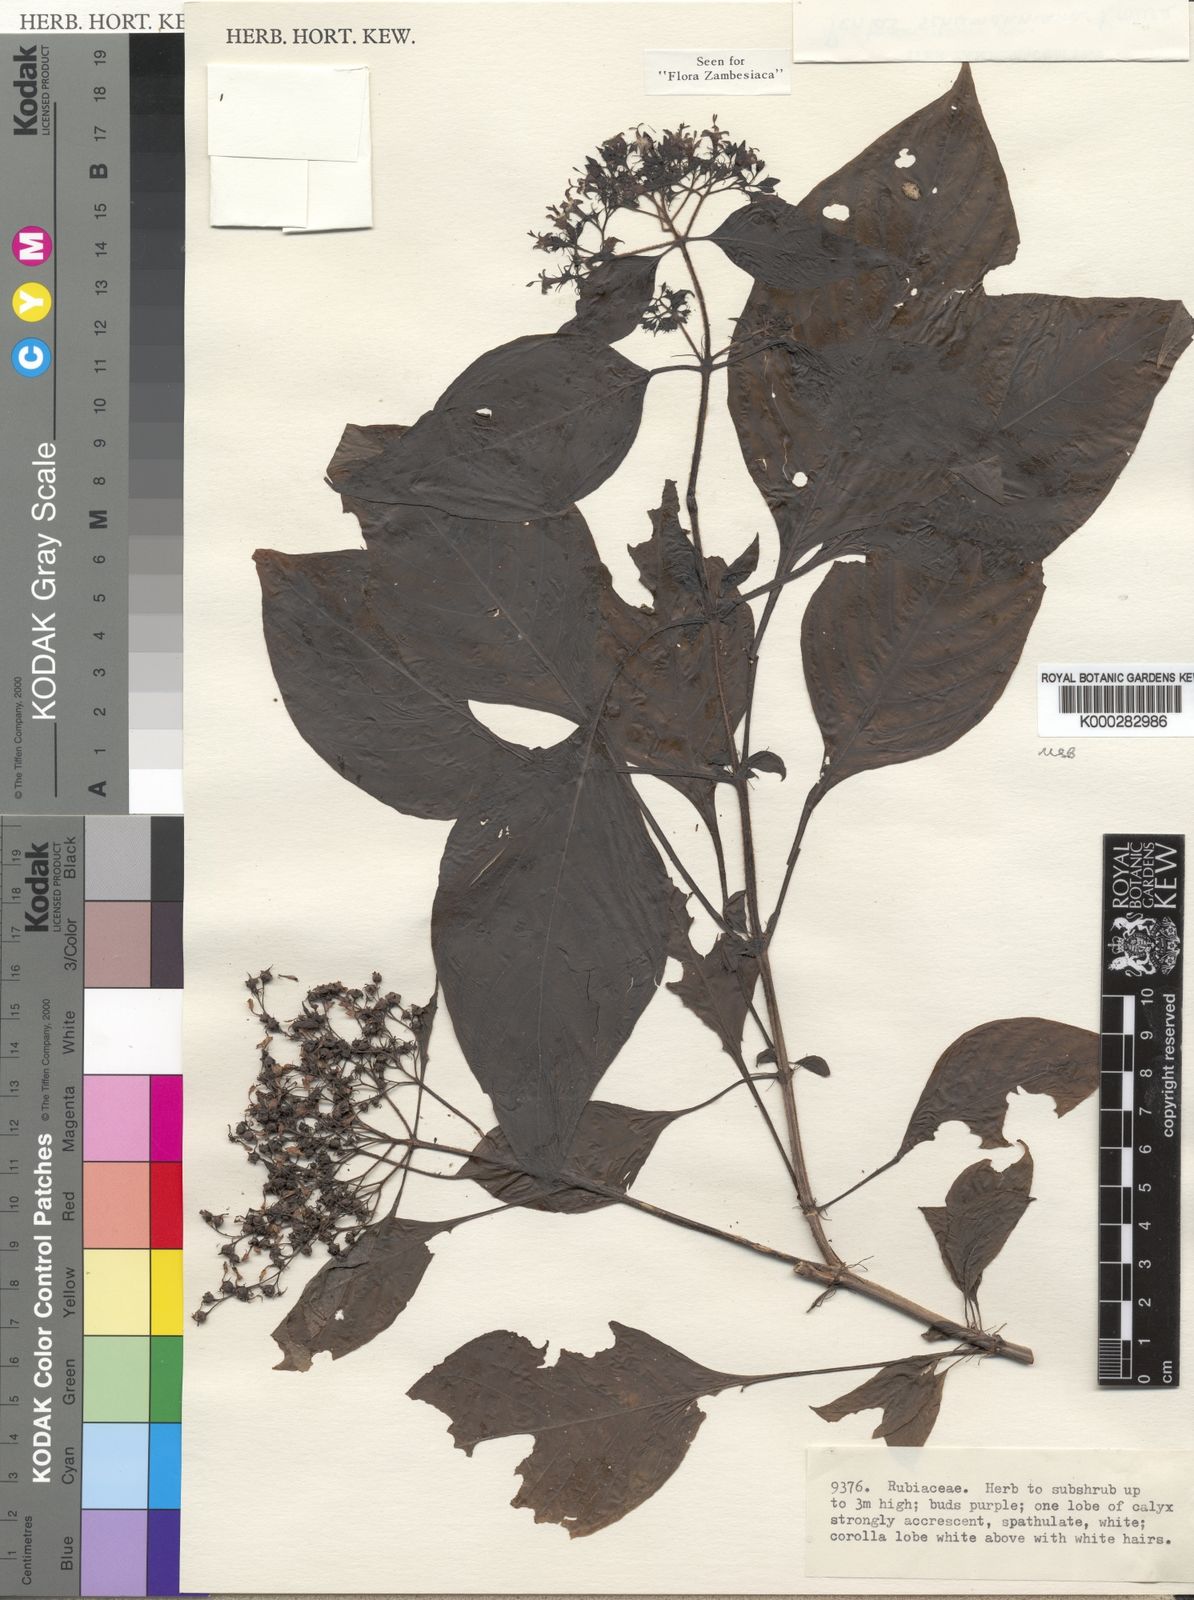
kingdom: Plantae
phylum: Tracheophyta
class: Magnoliopsida
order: Gentianales
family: Rubiaceae
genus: Phyllopentas
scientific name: Phyllopentas schumanniana
